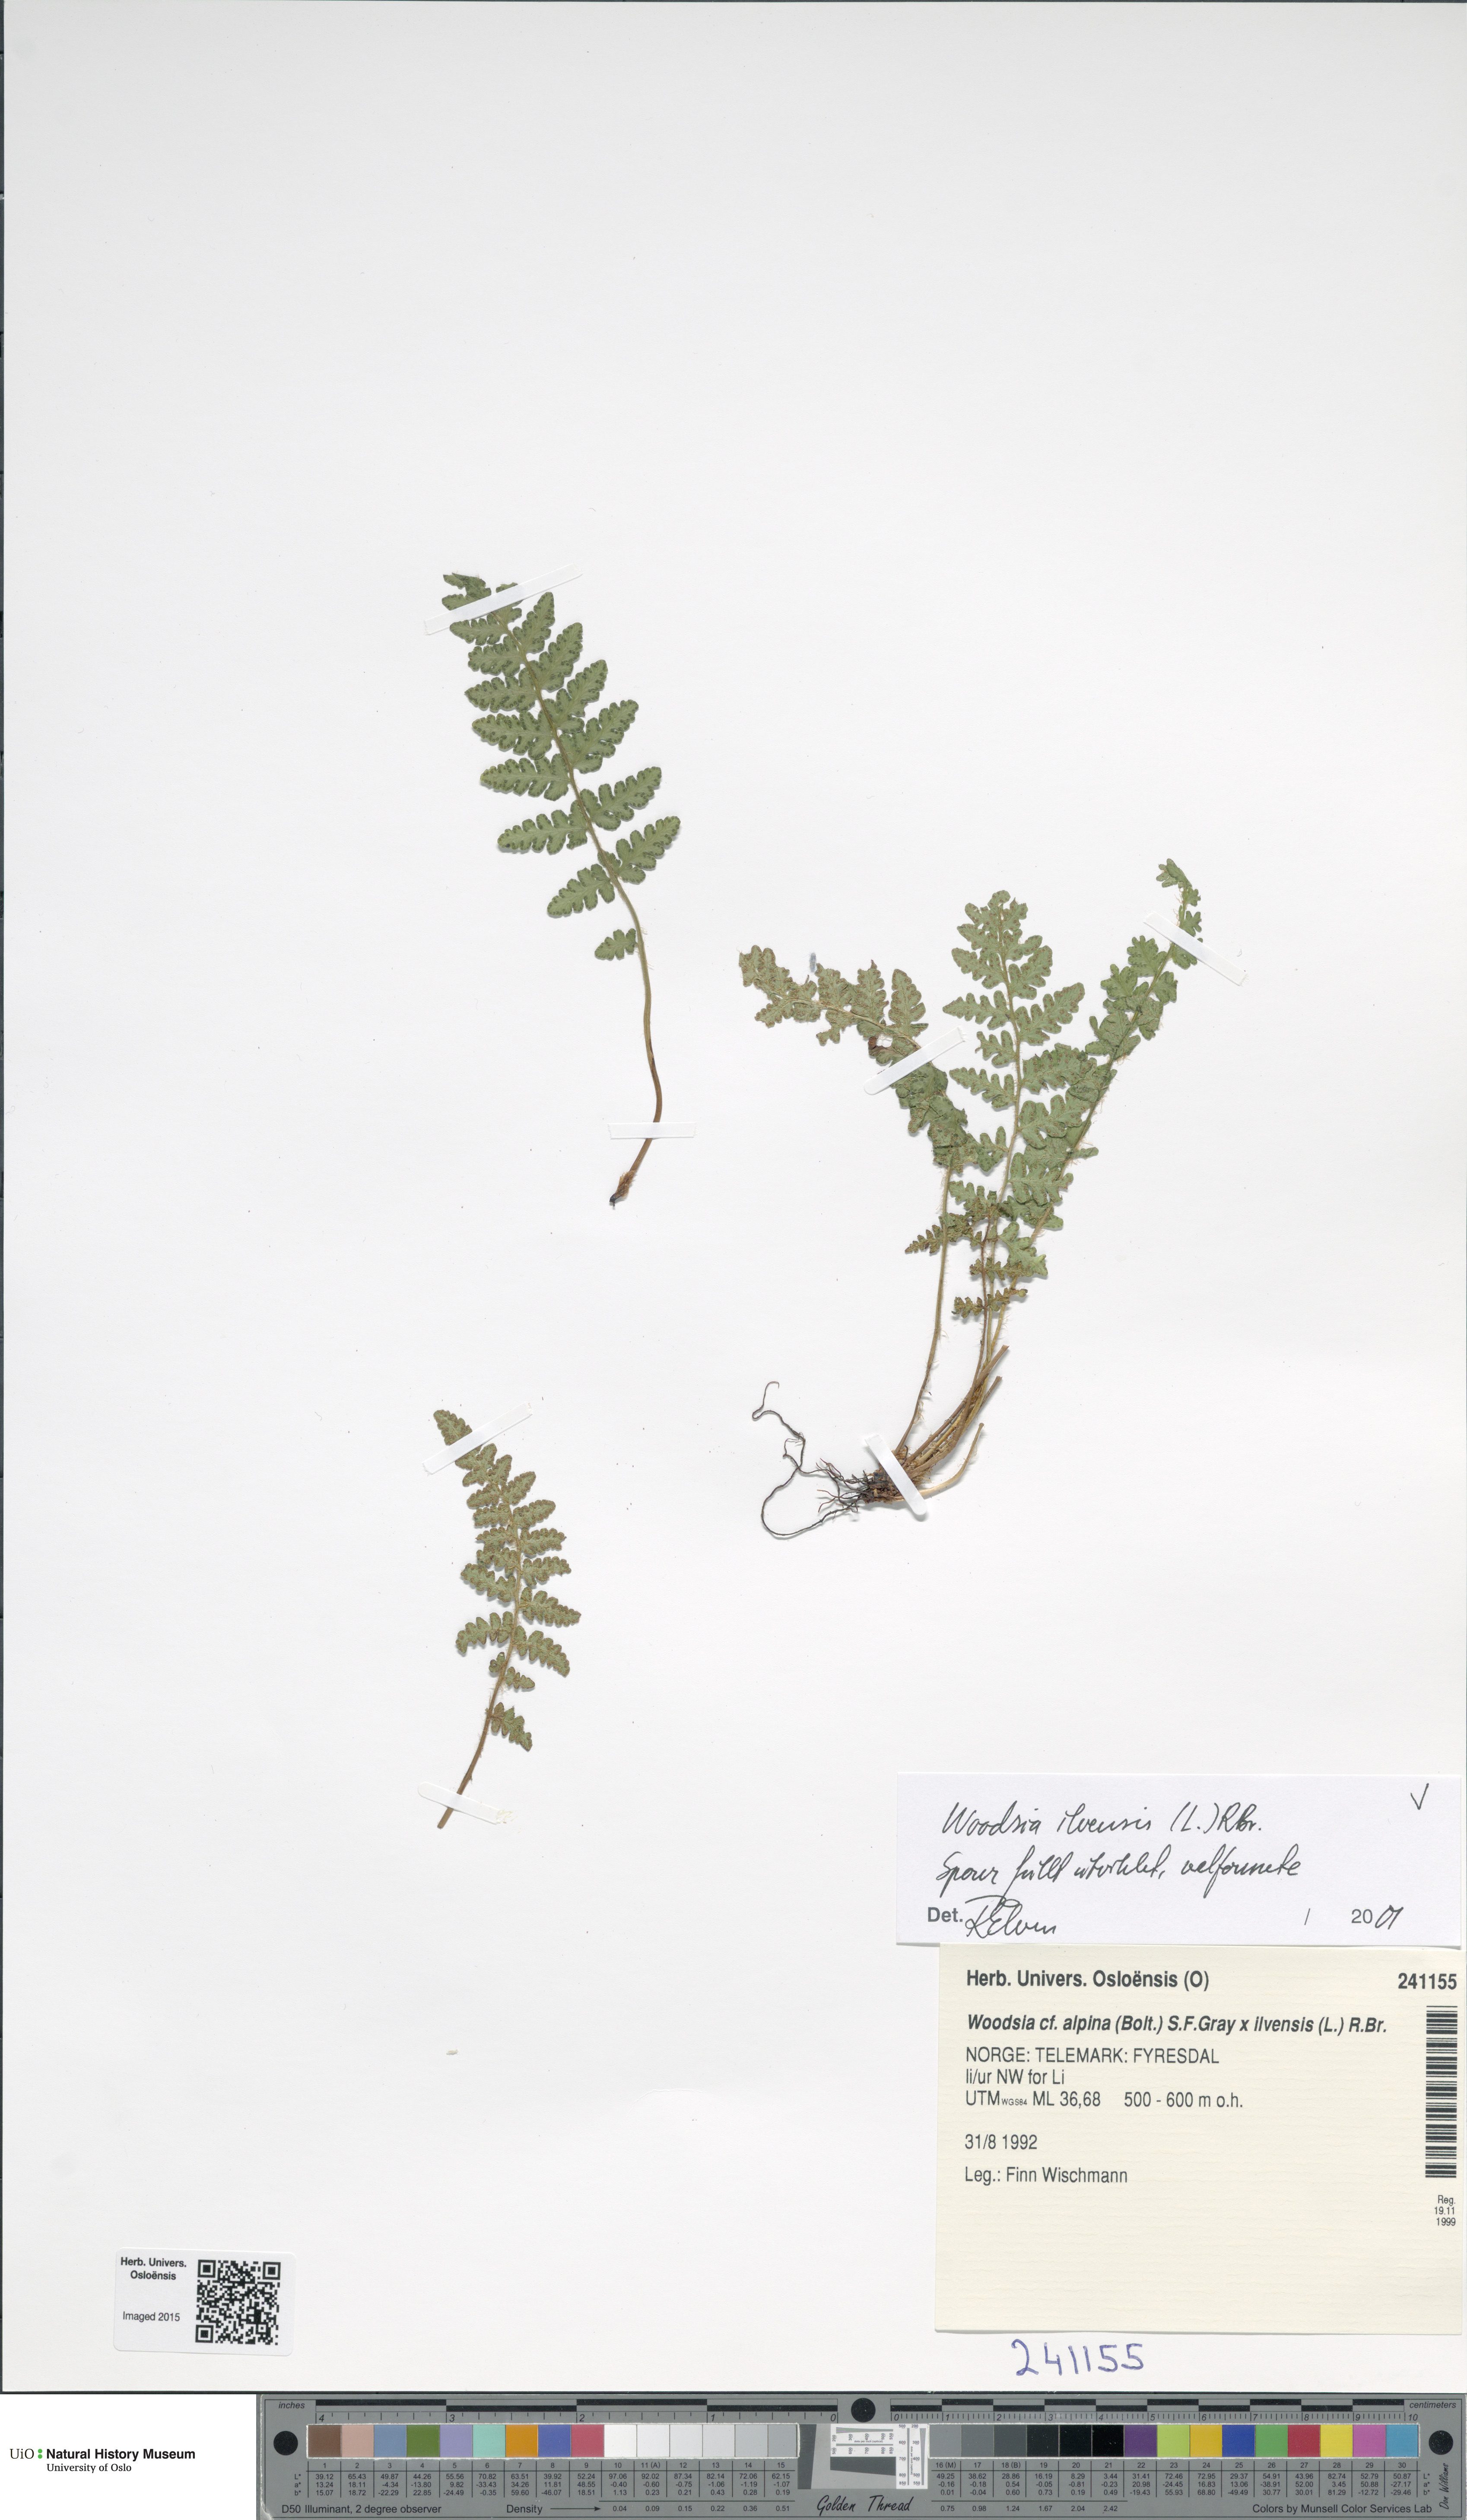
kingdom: Plantae
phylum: Tracheophyta
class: Polypodiopsida
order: Polypodiales
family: Woodsiaceae
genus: Woodsia
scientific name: Woodsia ilvensis
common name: Fragrant woodsia
